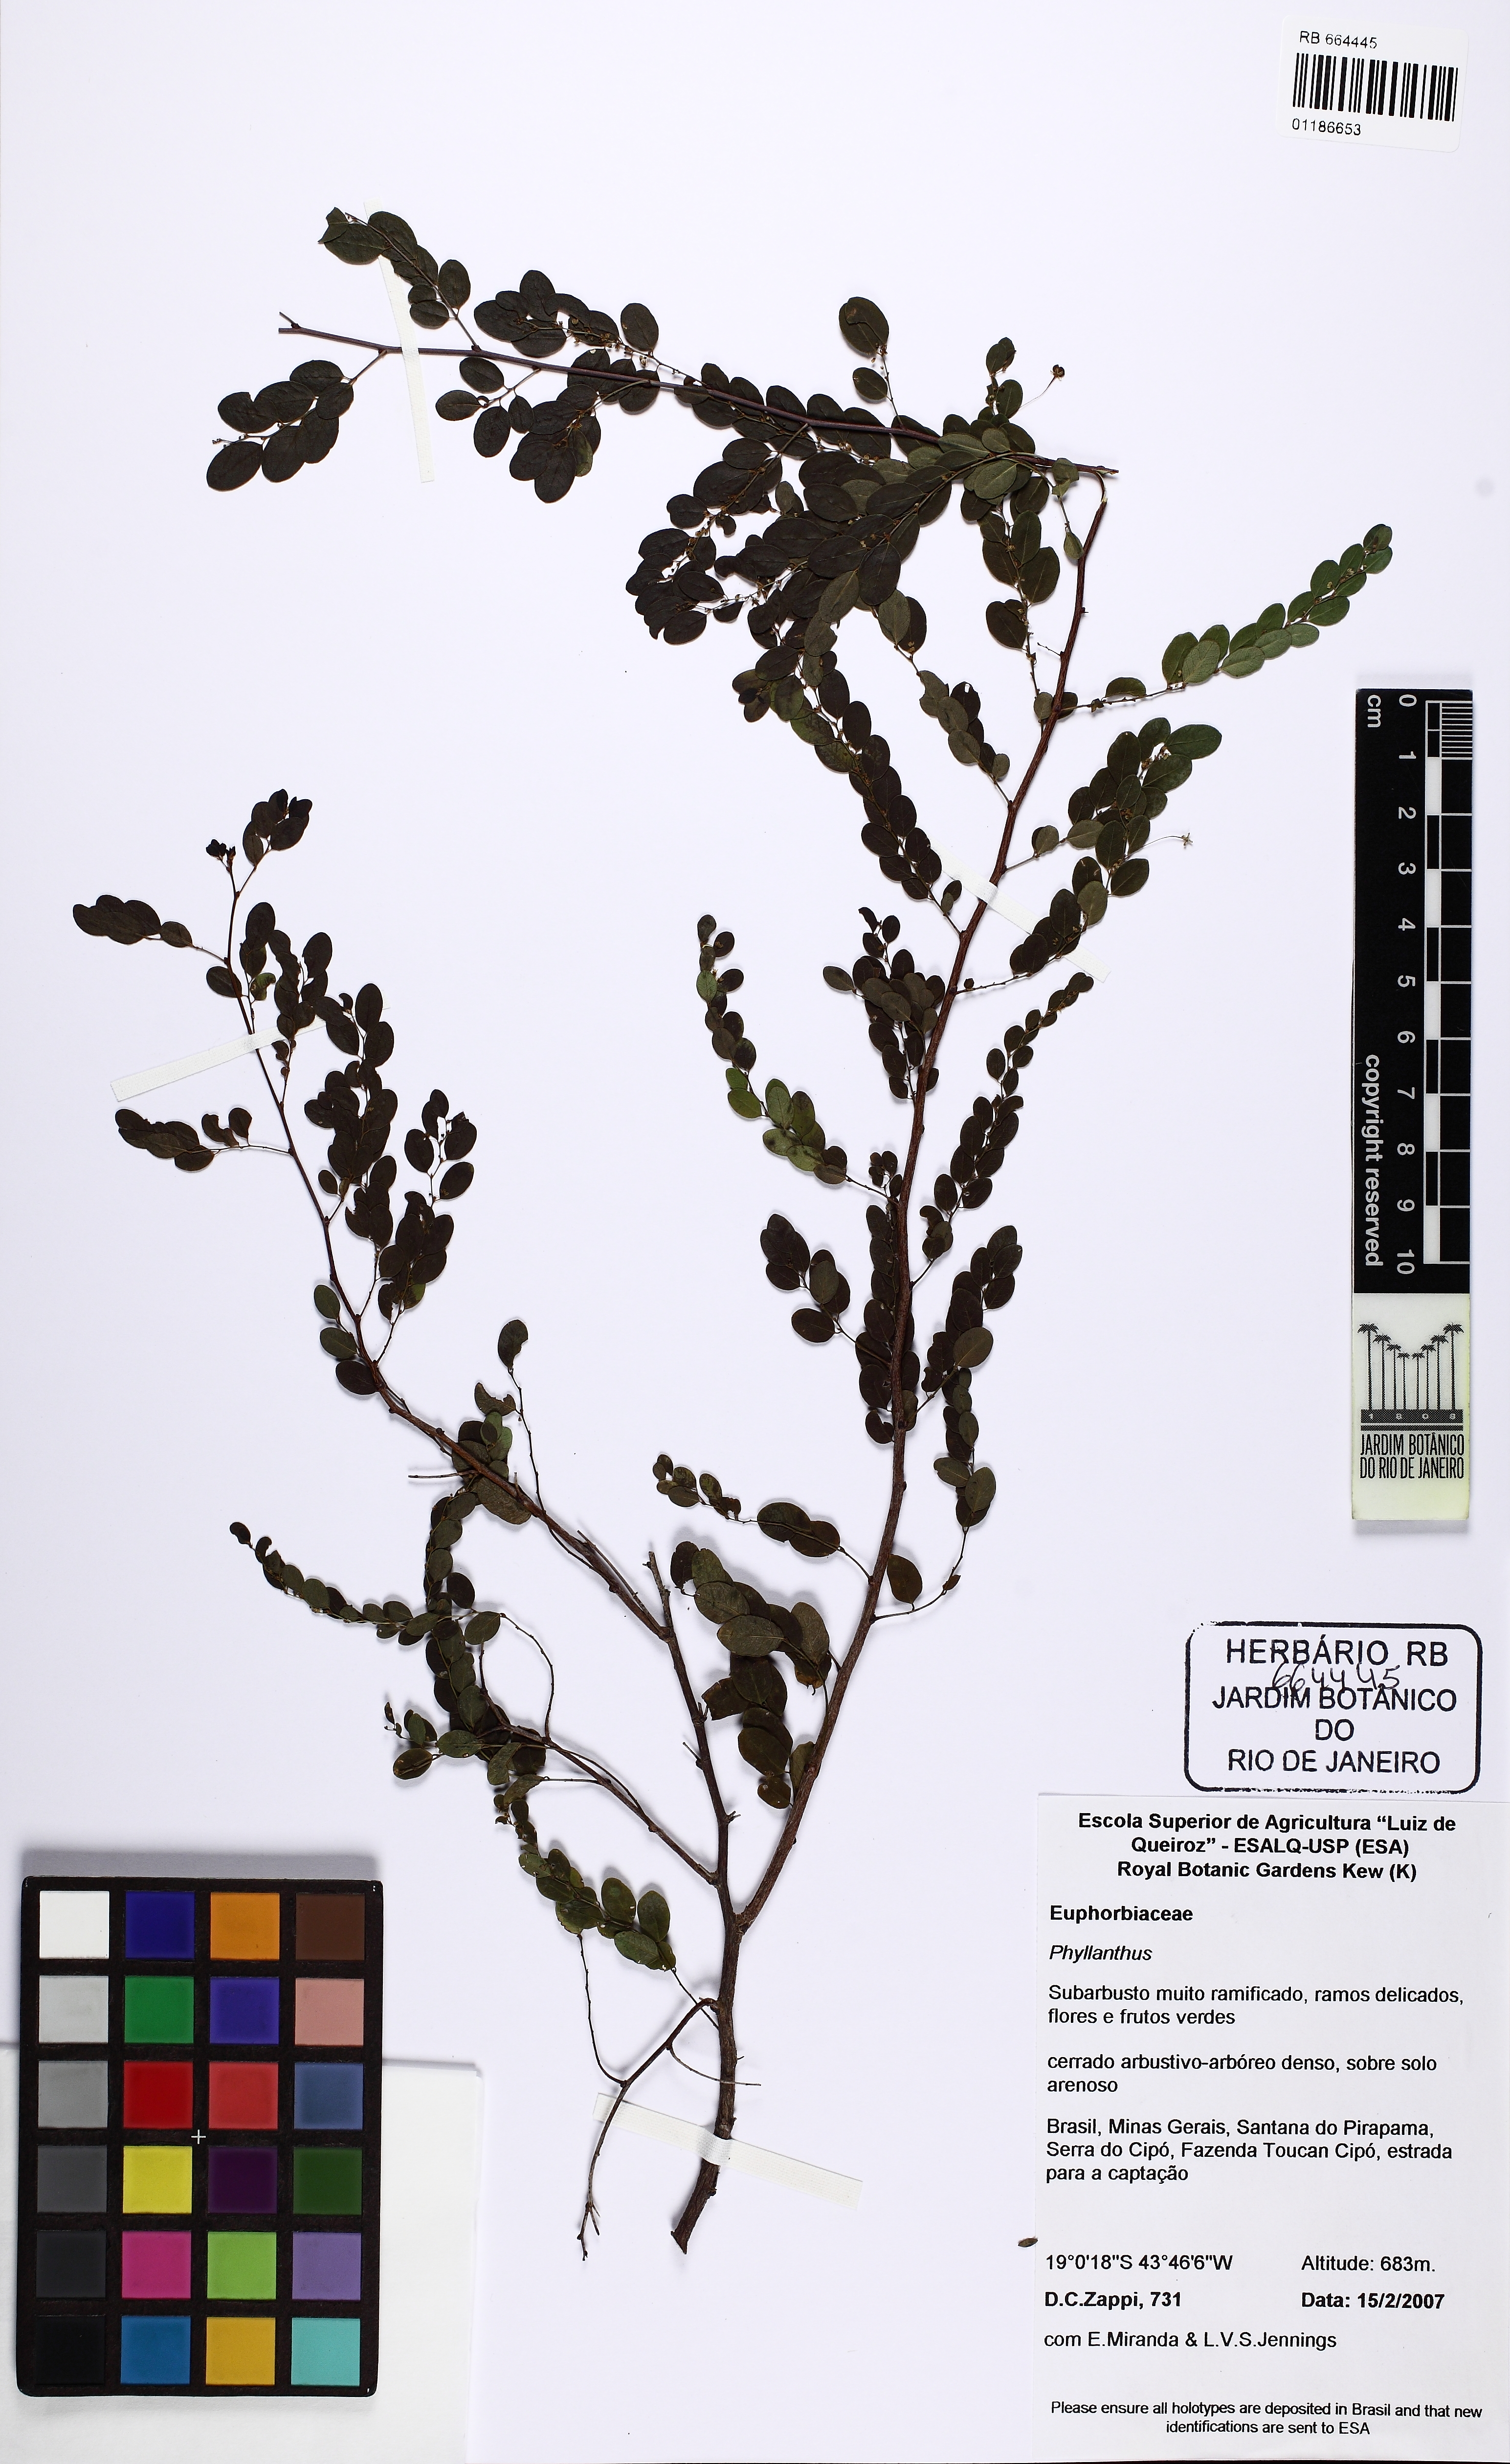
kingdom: Plantae
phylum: Tracheophyta
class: Magnoliopsida
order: Malpighiales
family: Phyllanthaceae
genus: Phyllanthus
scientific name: Phyllanthus claussenii
